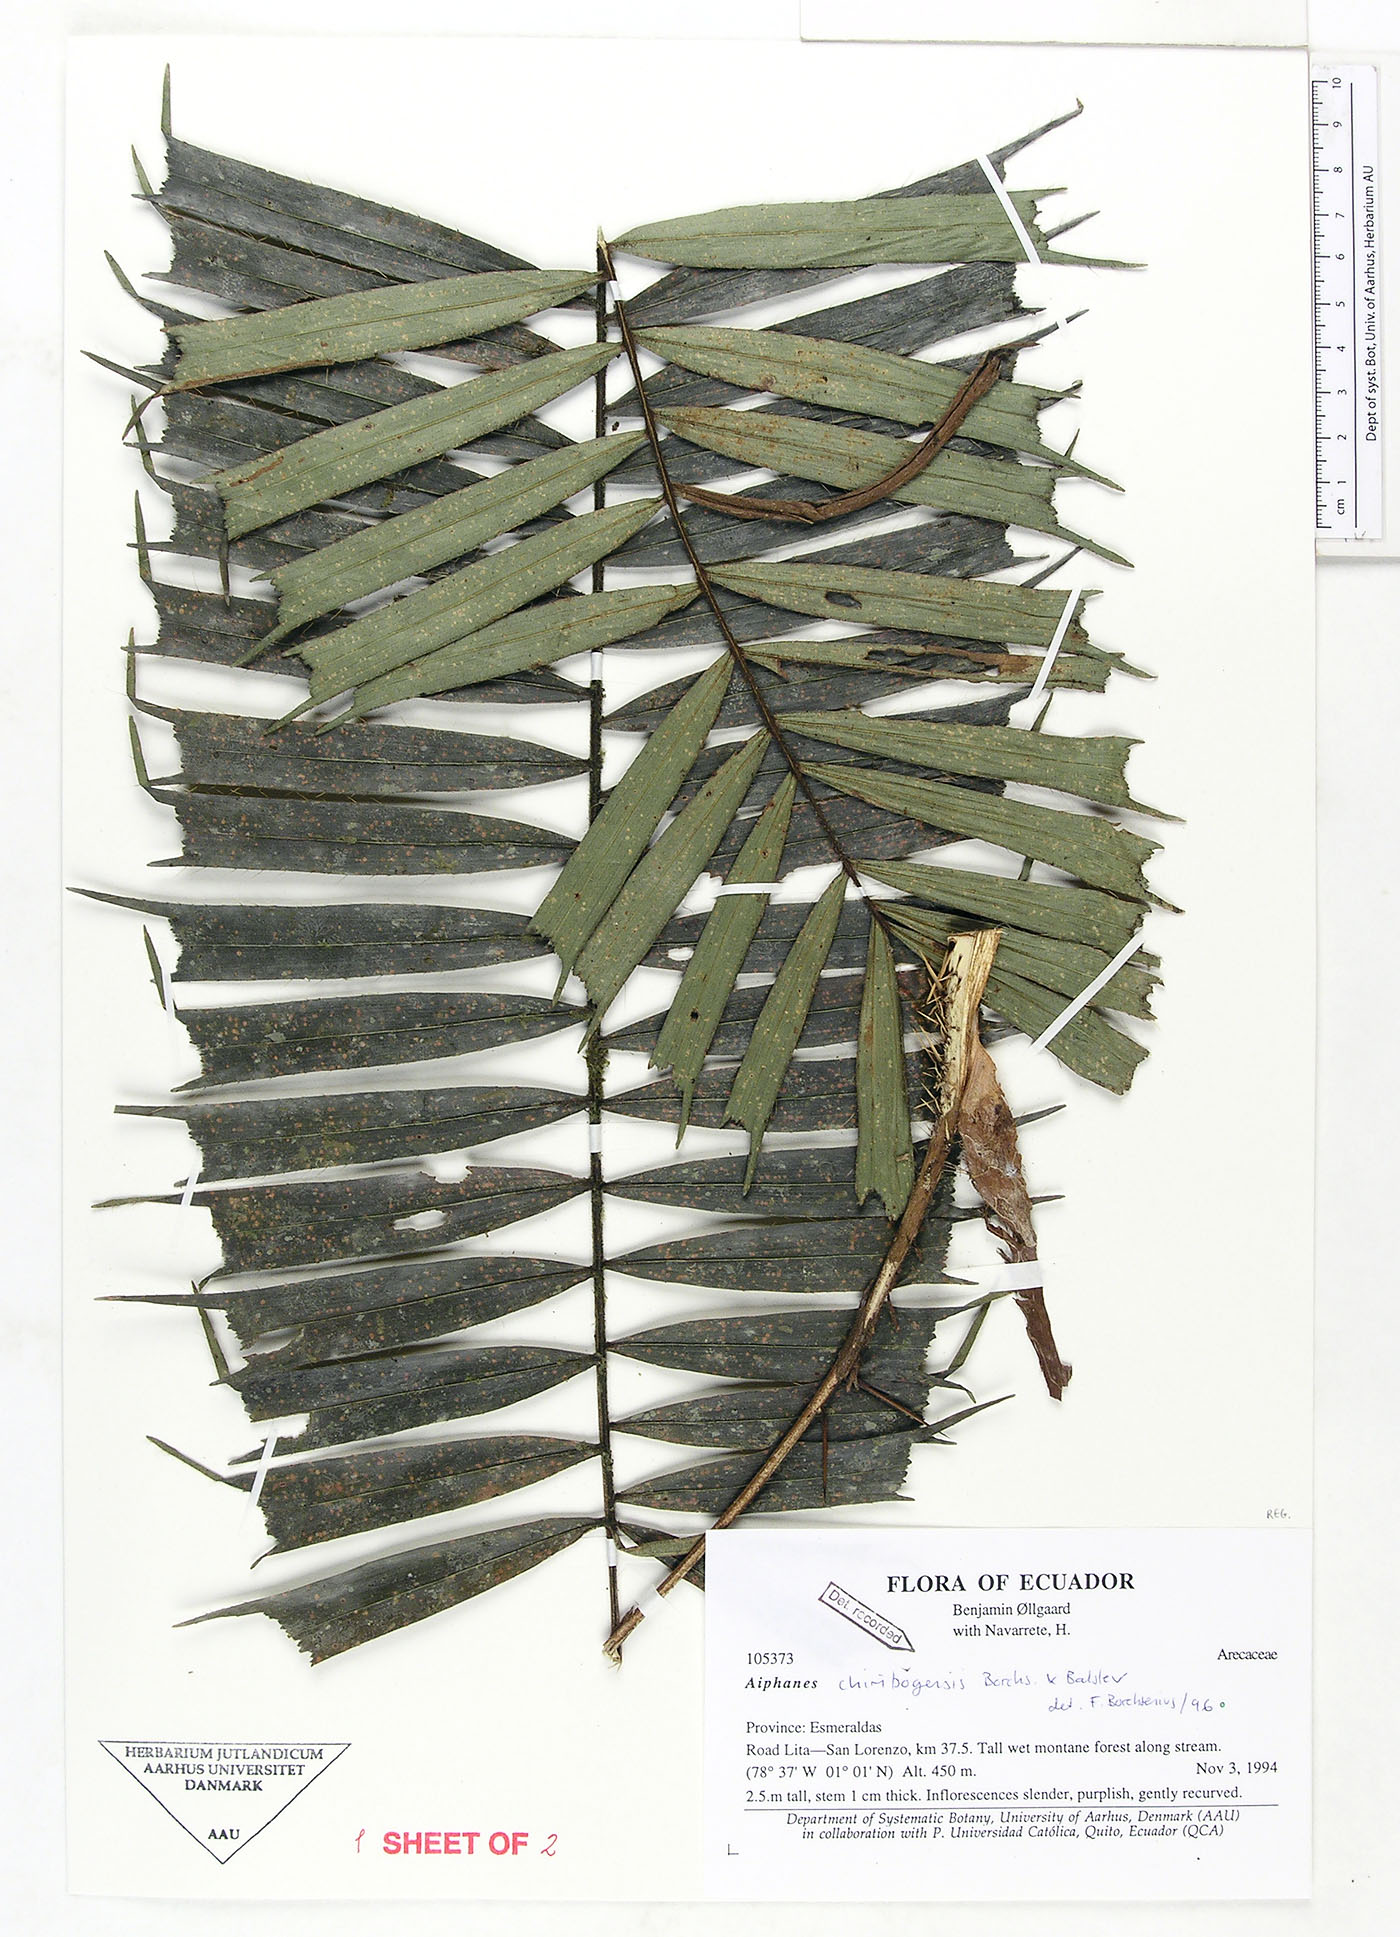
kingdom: Plantae
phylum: Tracheophyta
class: Liliopsida
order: Arecales
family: Arecaceae
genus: Aiphanes
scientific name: Aiphanes chiribogensis
